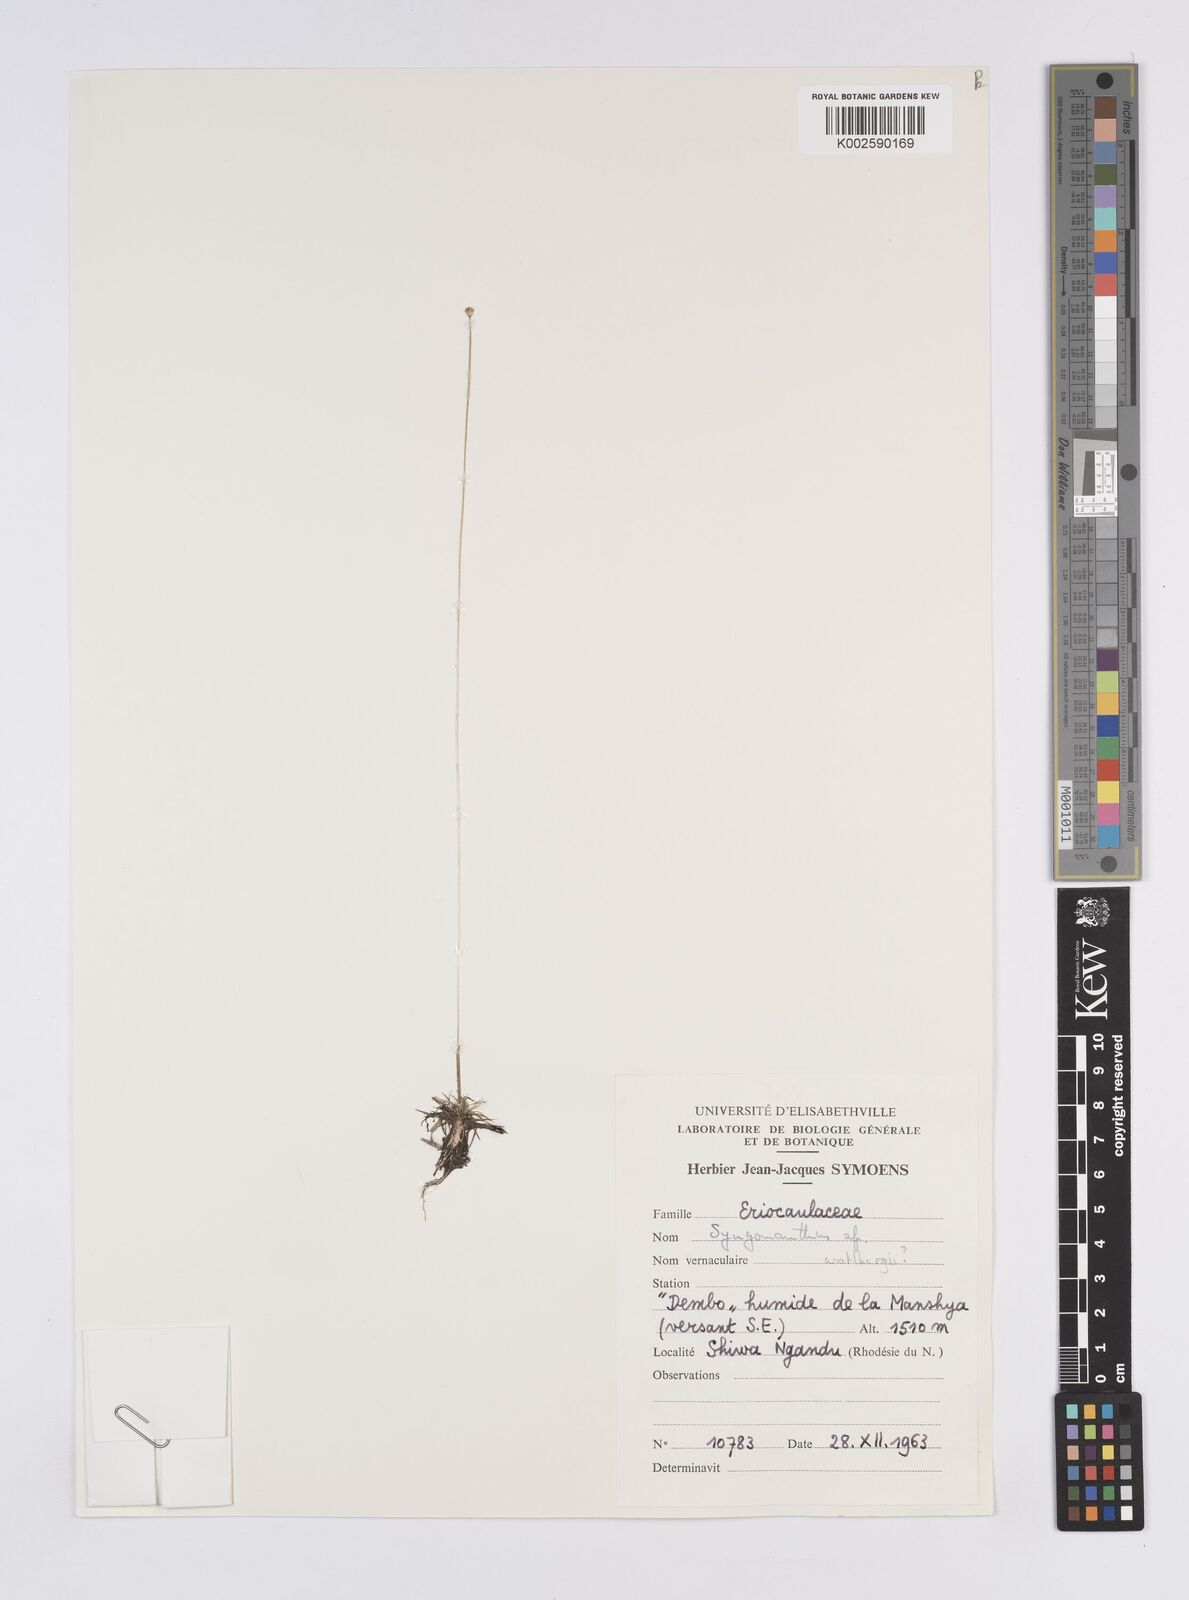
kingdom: Plantae
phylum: Tracheophyta
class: Liliopsida
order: Poales
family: Eriocaulaceae
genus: Syngonanthus
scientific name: Syngonanthus wahlbergii
